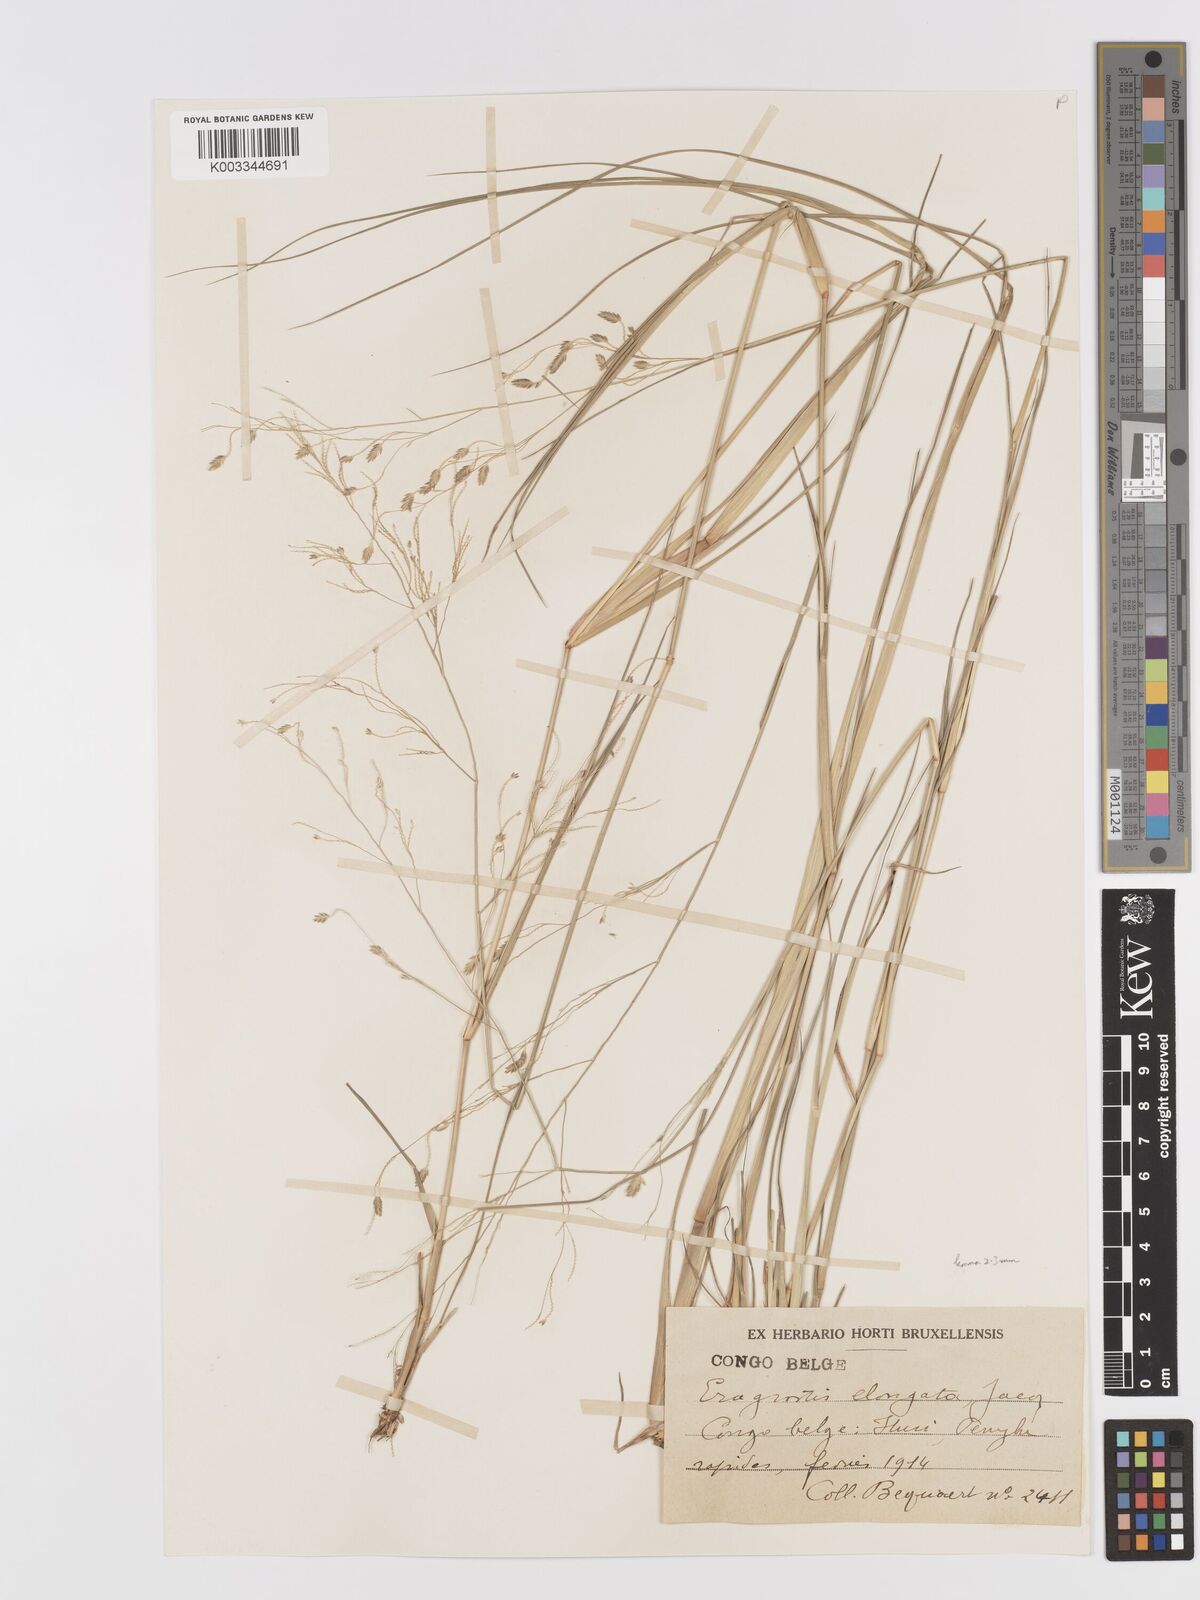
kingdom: Plantae
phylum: Tracheophyta
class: Liliopsida
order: Poales
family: Poaceae
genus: Eragrostis
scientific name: Eragrostis atrovirens
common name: Thalia lovegrass
